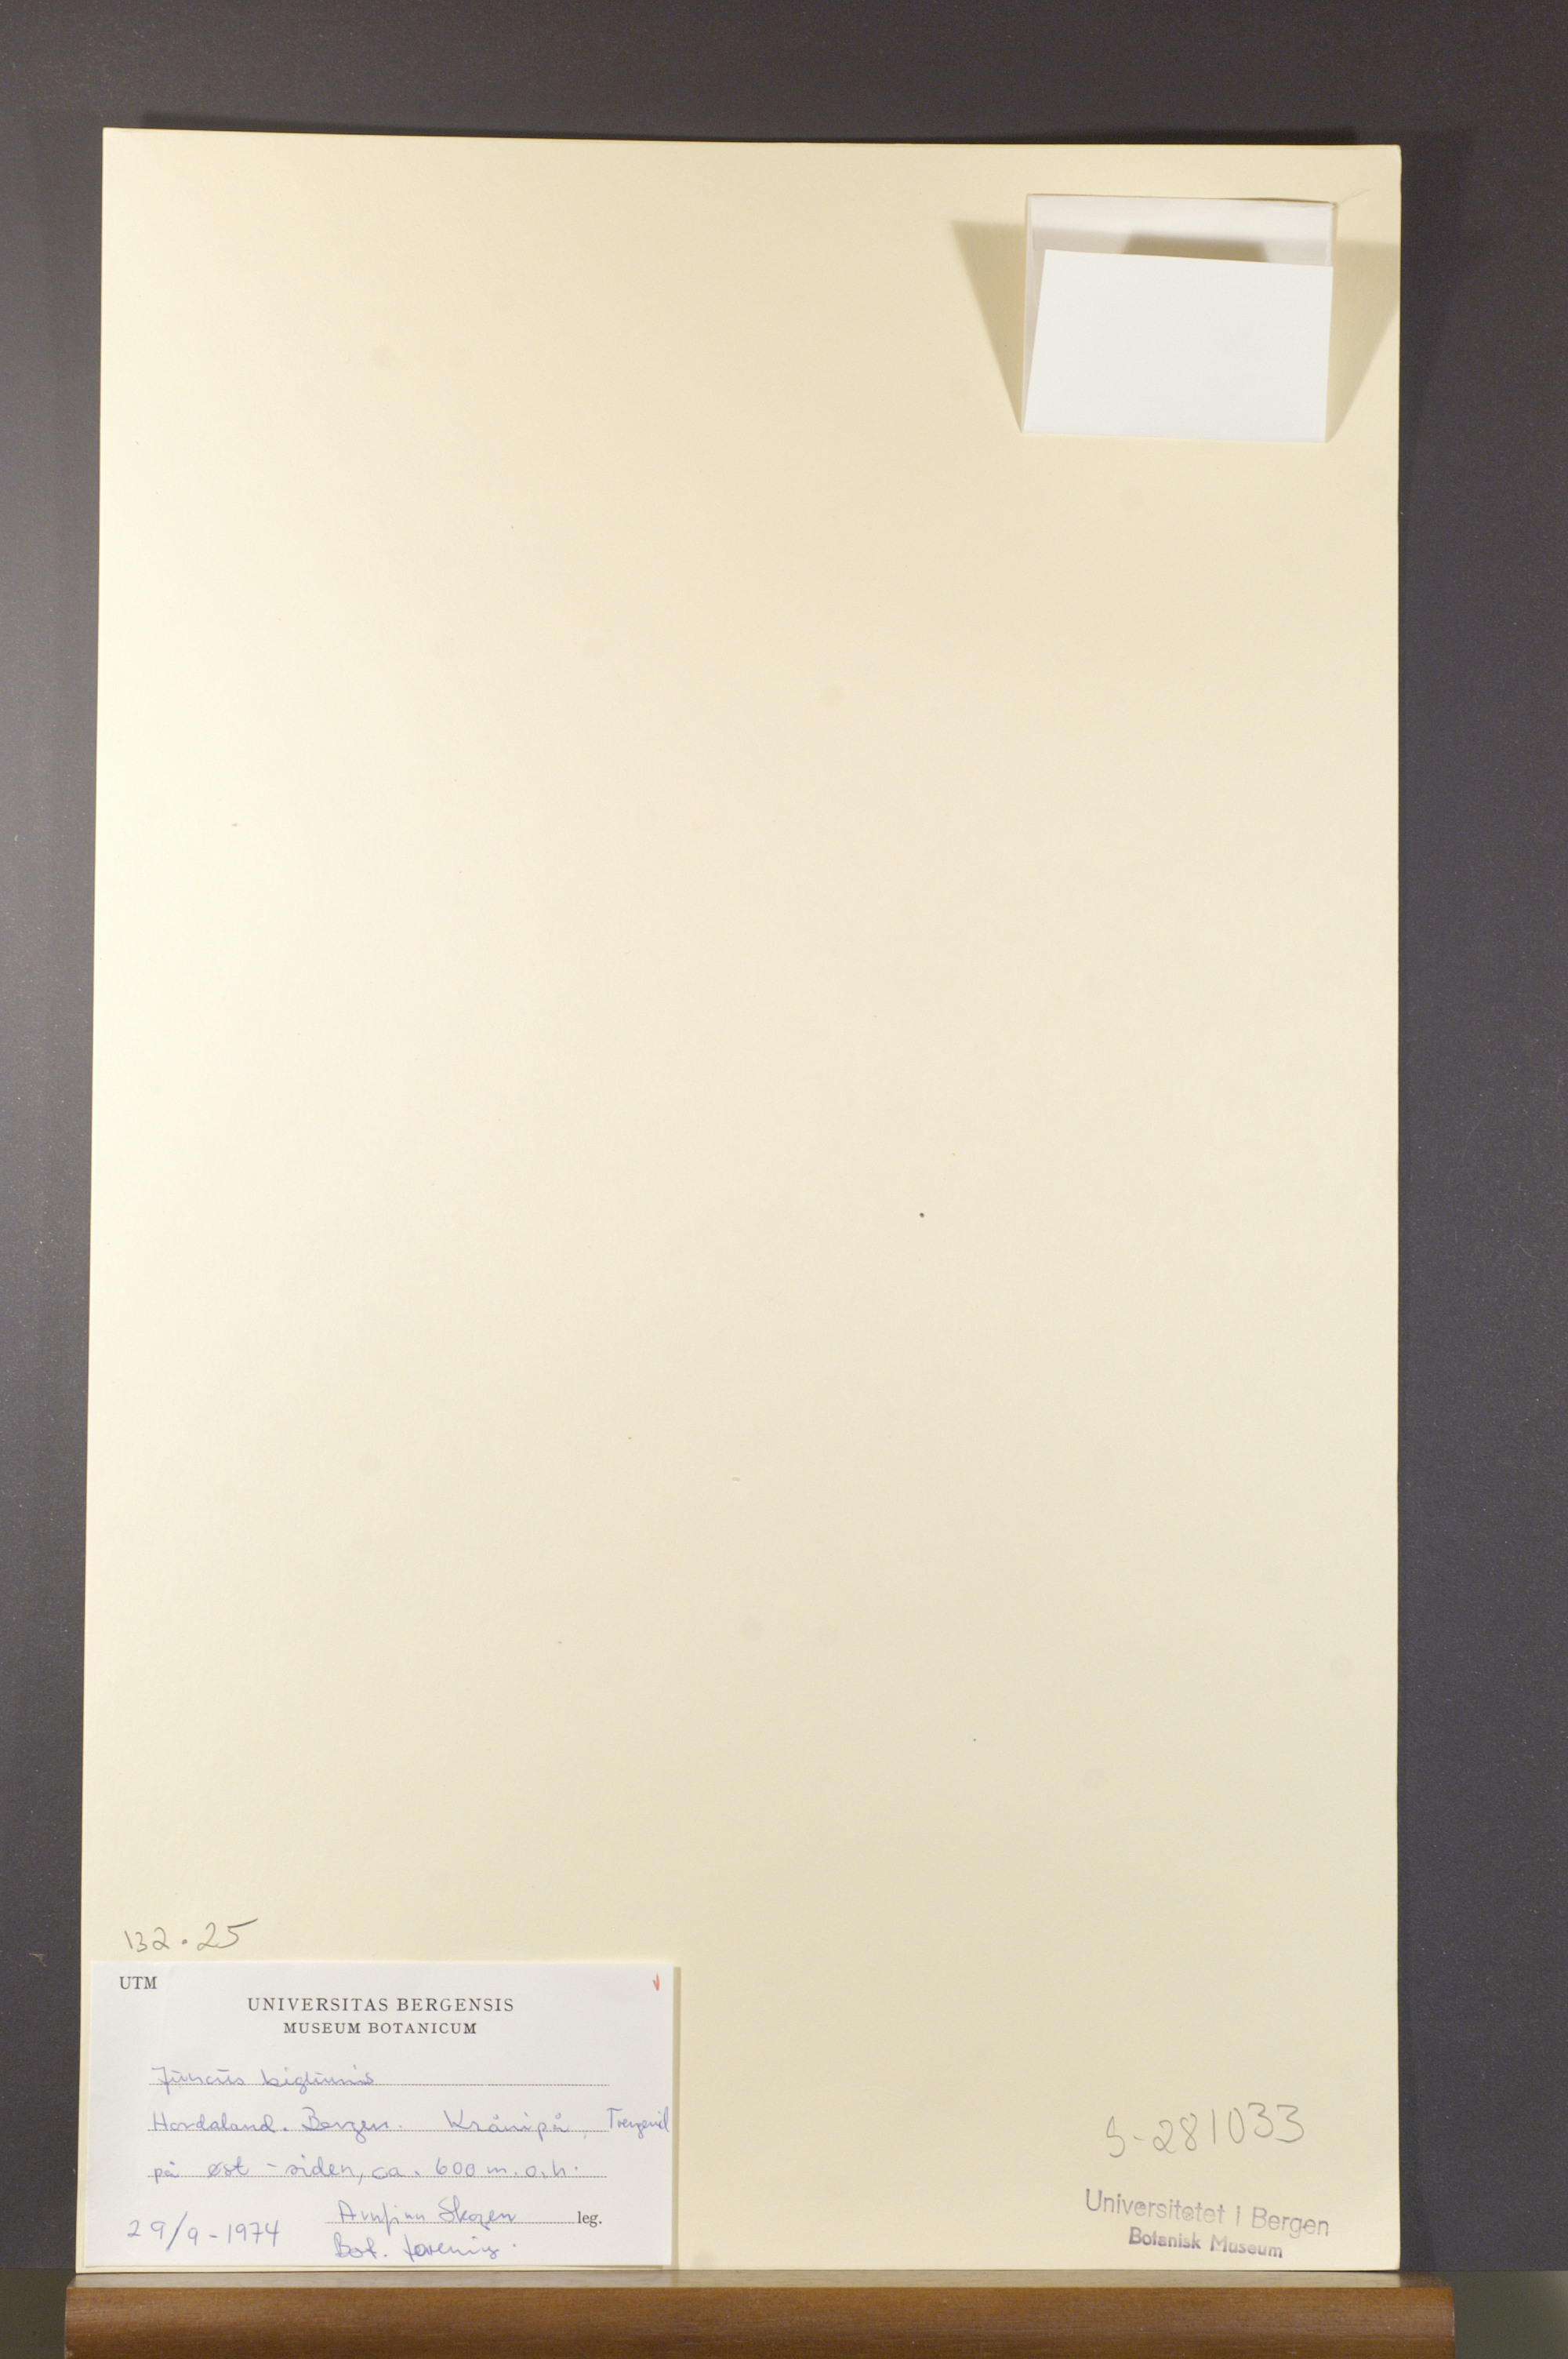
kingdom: Plantae
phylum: Tracheophyta
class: Liliopsida
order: Poales
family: Juncaceae
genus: Juncus
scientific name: Juncus biglumis
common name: Two-flowered rush
